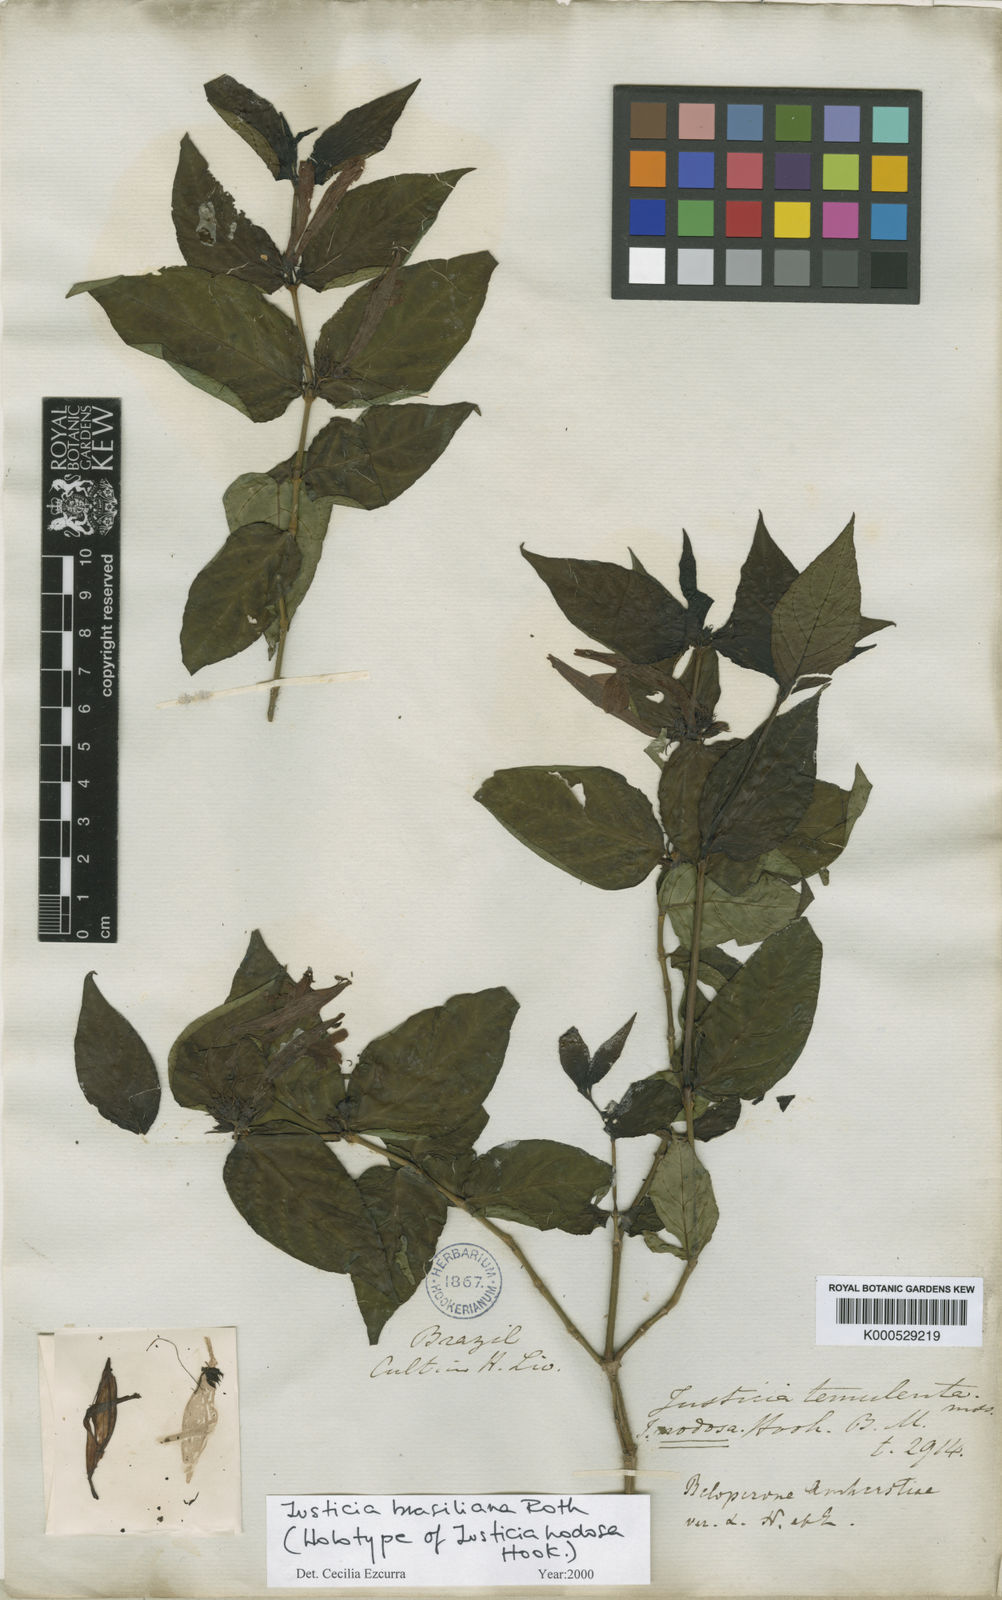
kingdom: Plantae
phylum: Tracheophyta
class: Magnoliopsida
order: Lamiales
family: Acanthaceae
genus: Justicia
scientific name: Justicia brasiliana
